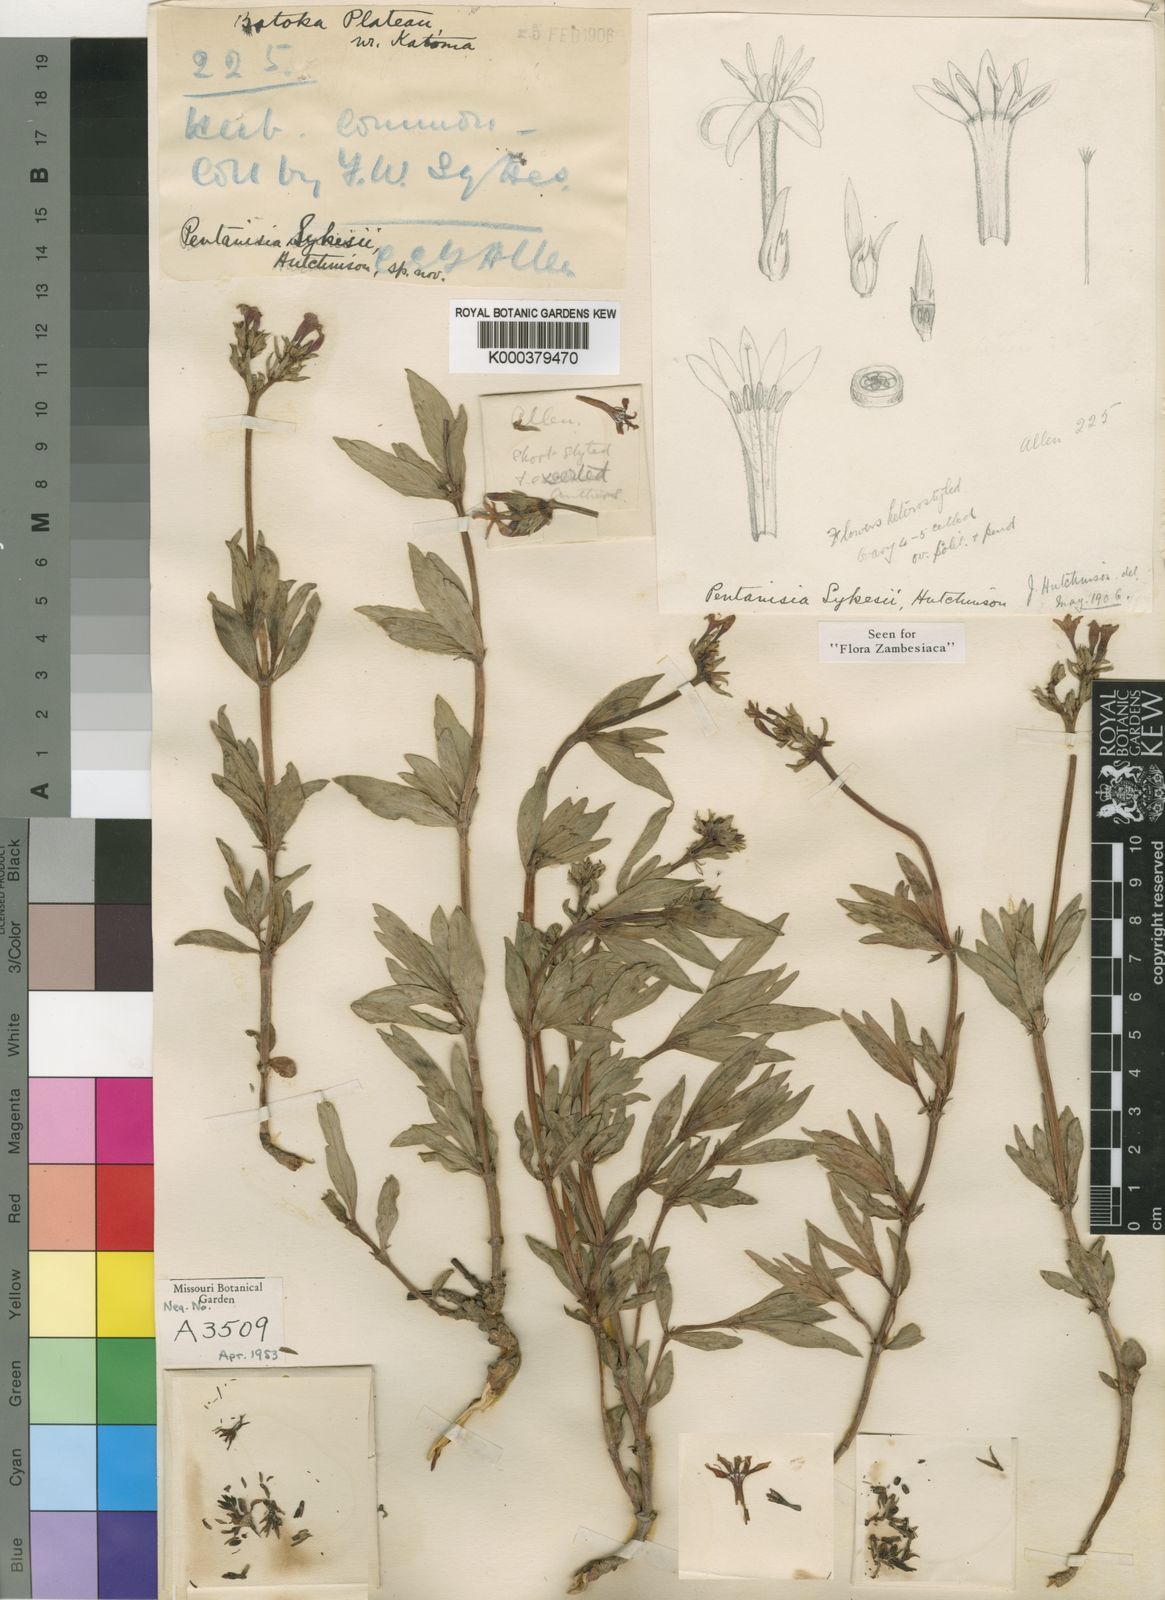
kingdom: Plantae
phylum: Tracheophyta
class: Magnoliopsida
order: Gentianales
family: Rubiaceae
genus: Pentanisia
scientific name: Pentanisia sykesii
